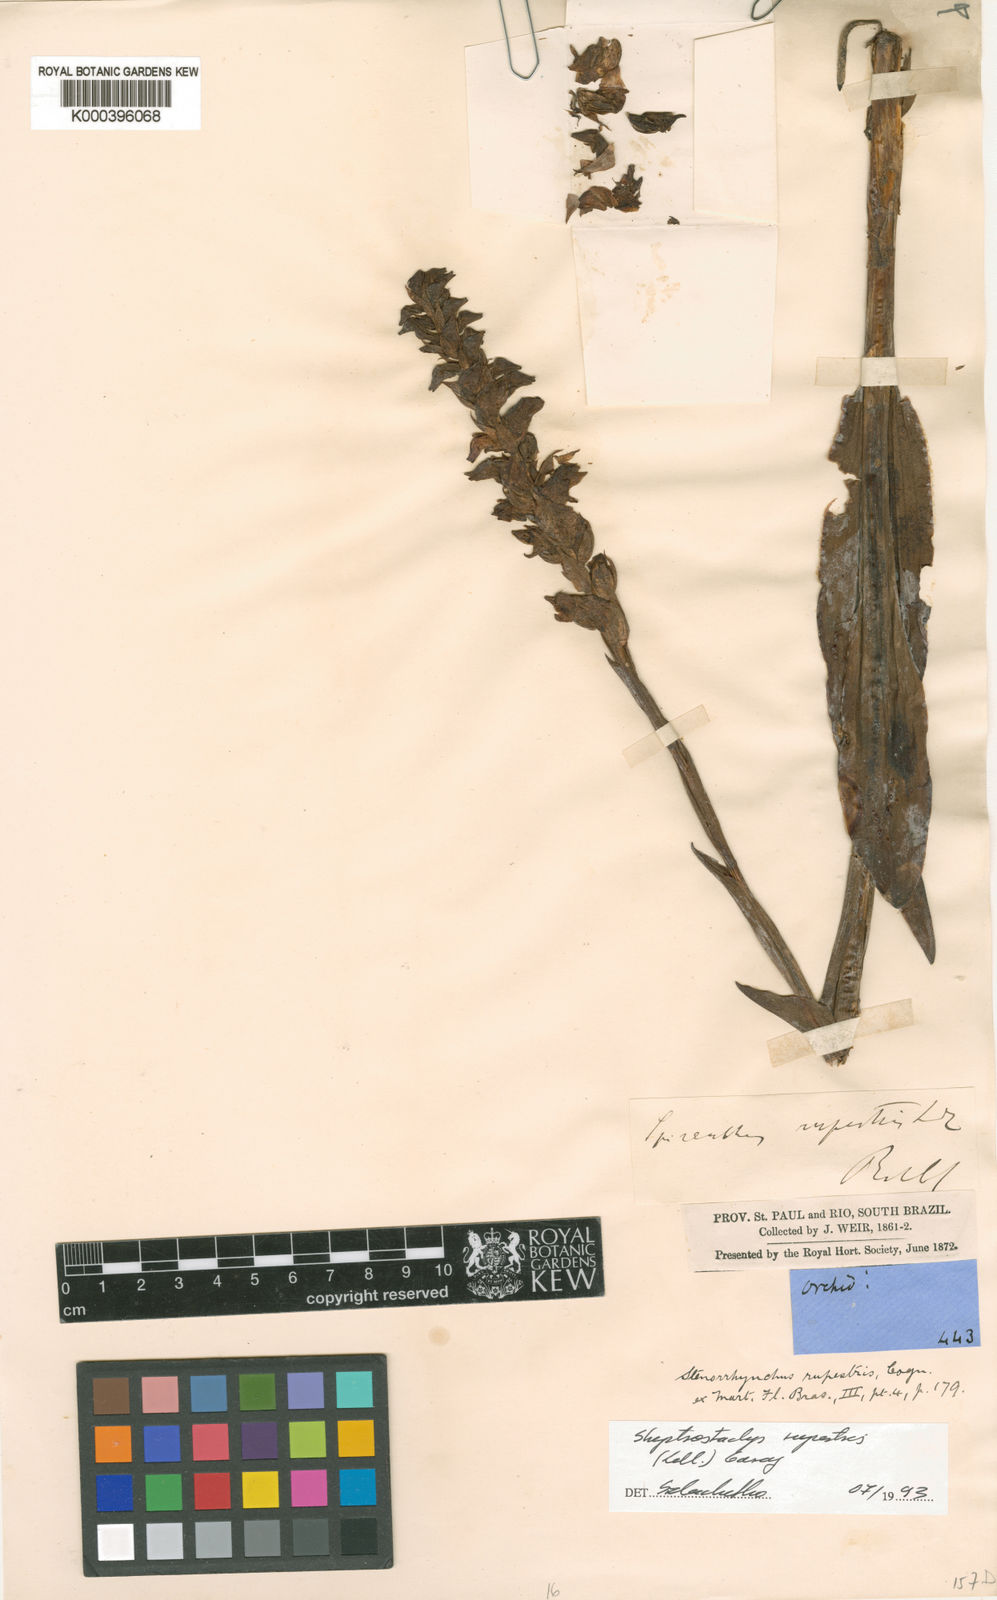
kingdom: Plantae
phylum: Tracheophyta
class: Liliopsida
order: Asparagales
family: Orchidaceae
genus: Skeptrostachys
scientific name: Skeptrostachys rupestris
